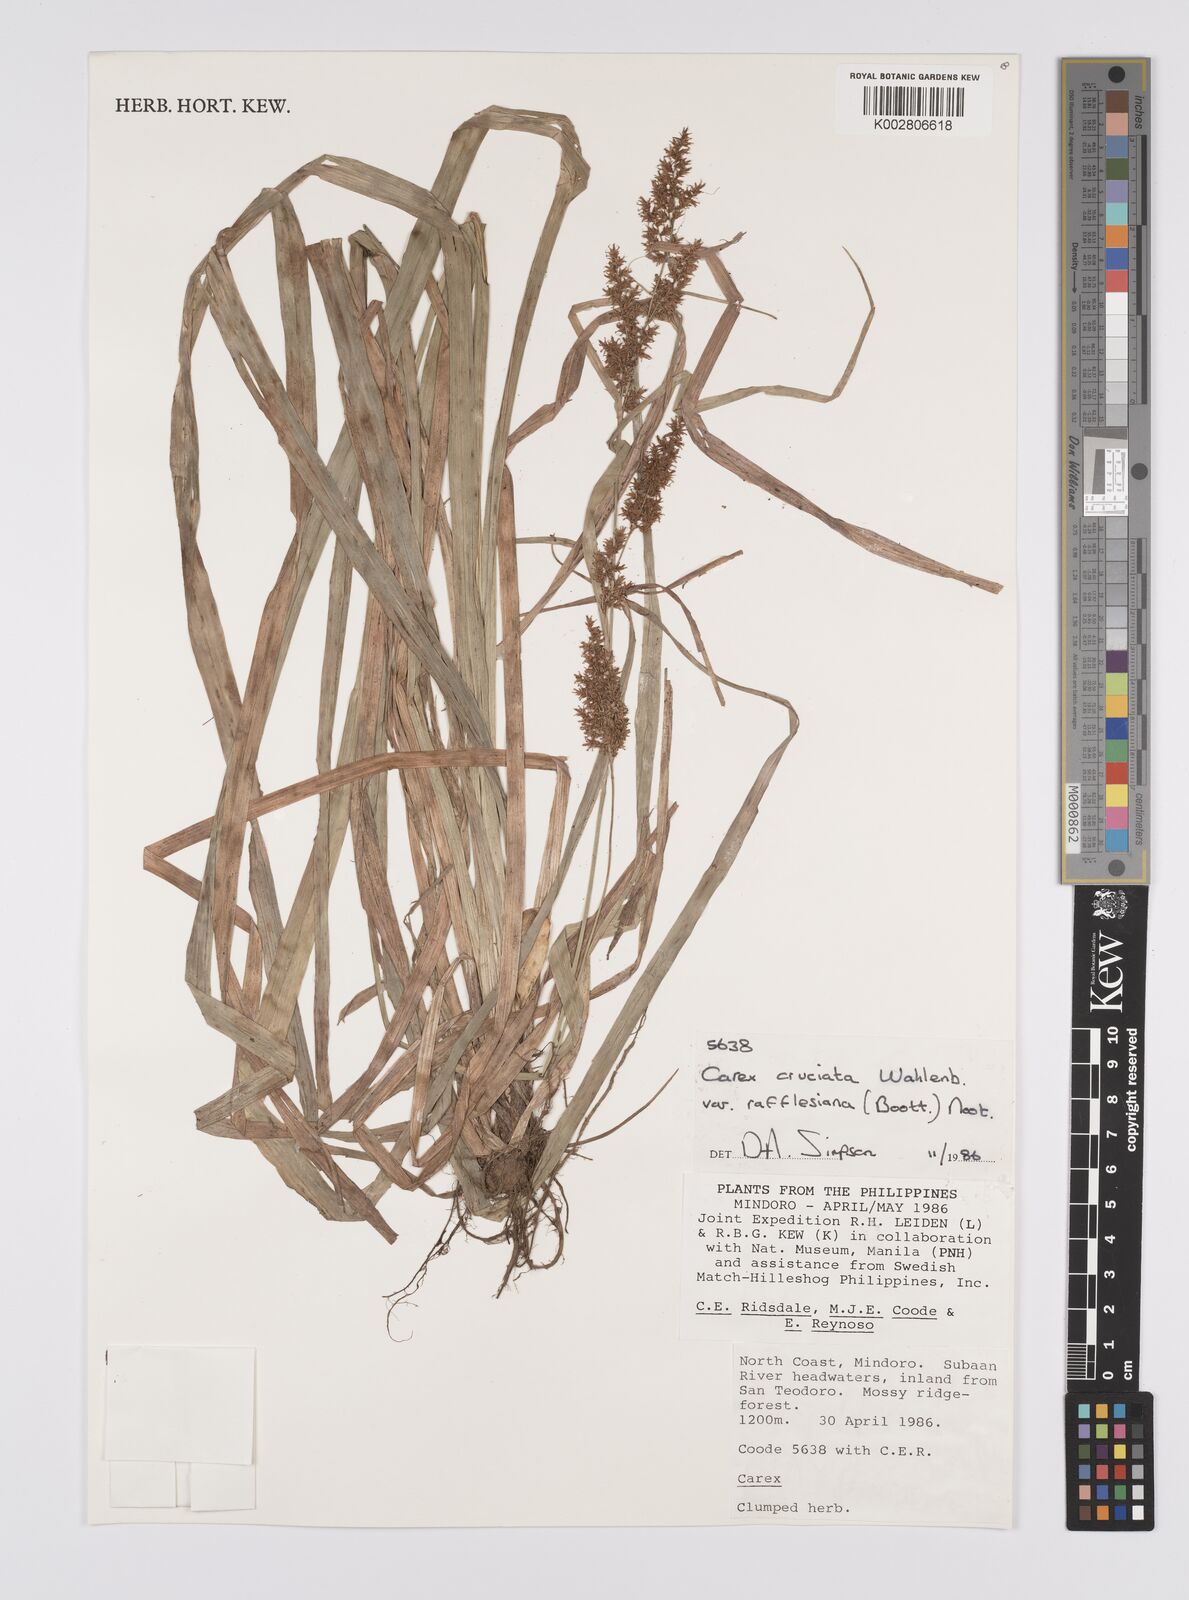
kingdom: Plantae
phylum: Tracheophyta
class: Liliopsida
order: Poales
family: Cyperaceae
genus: Carex
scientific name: Carex rafflesiana
